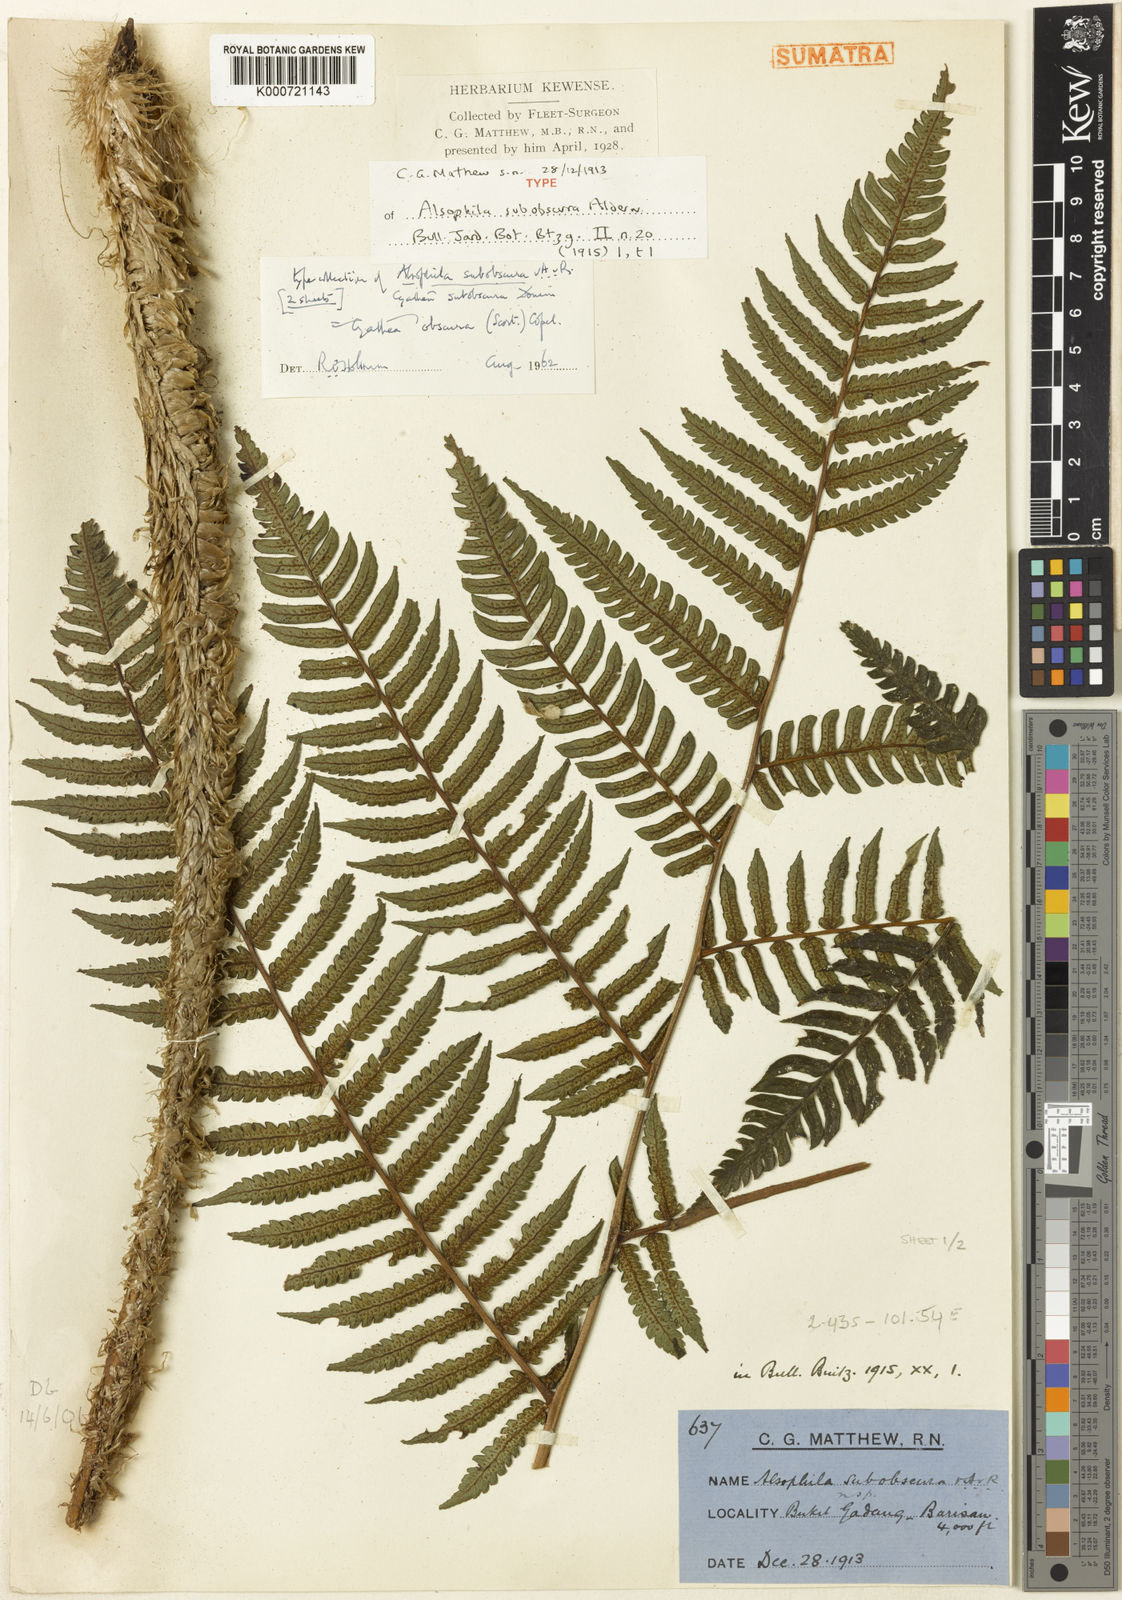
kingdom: Plantae
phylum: Tracheophyta
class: Polypodiopsida
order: Cyatheales
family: Cyatheaceae
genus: Sphaeropteris
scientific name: Sphaeropteris obscura
